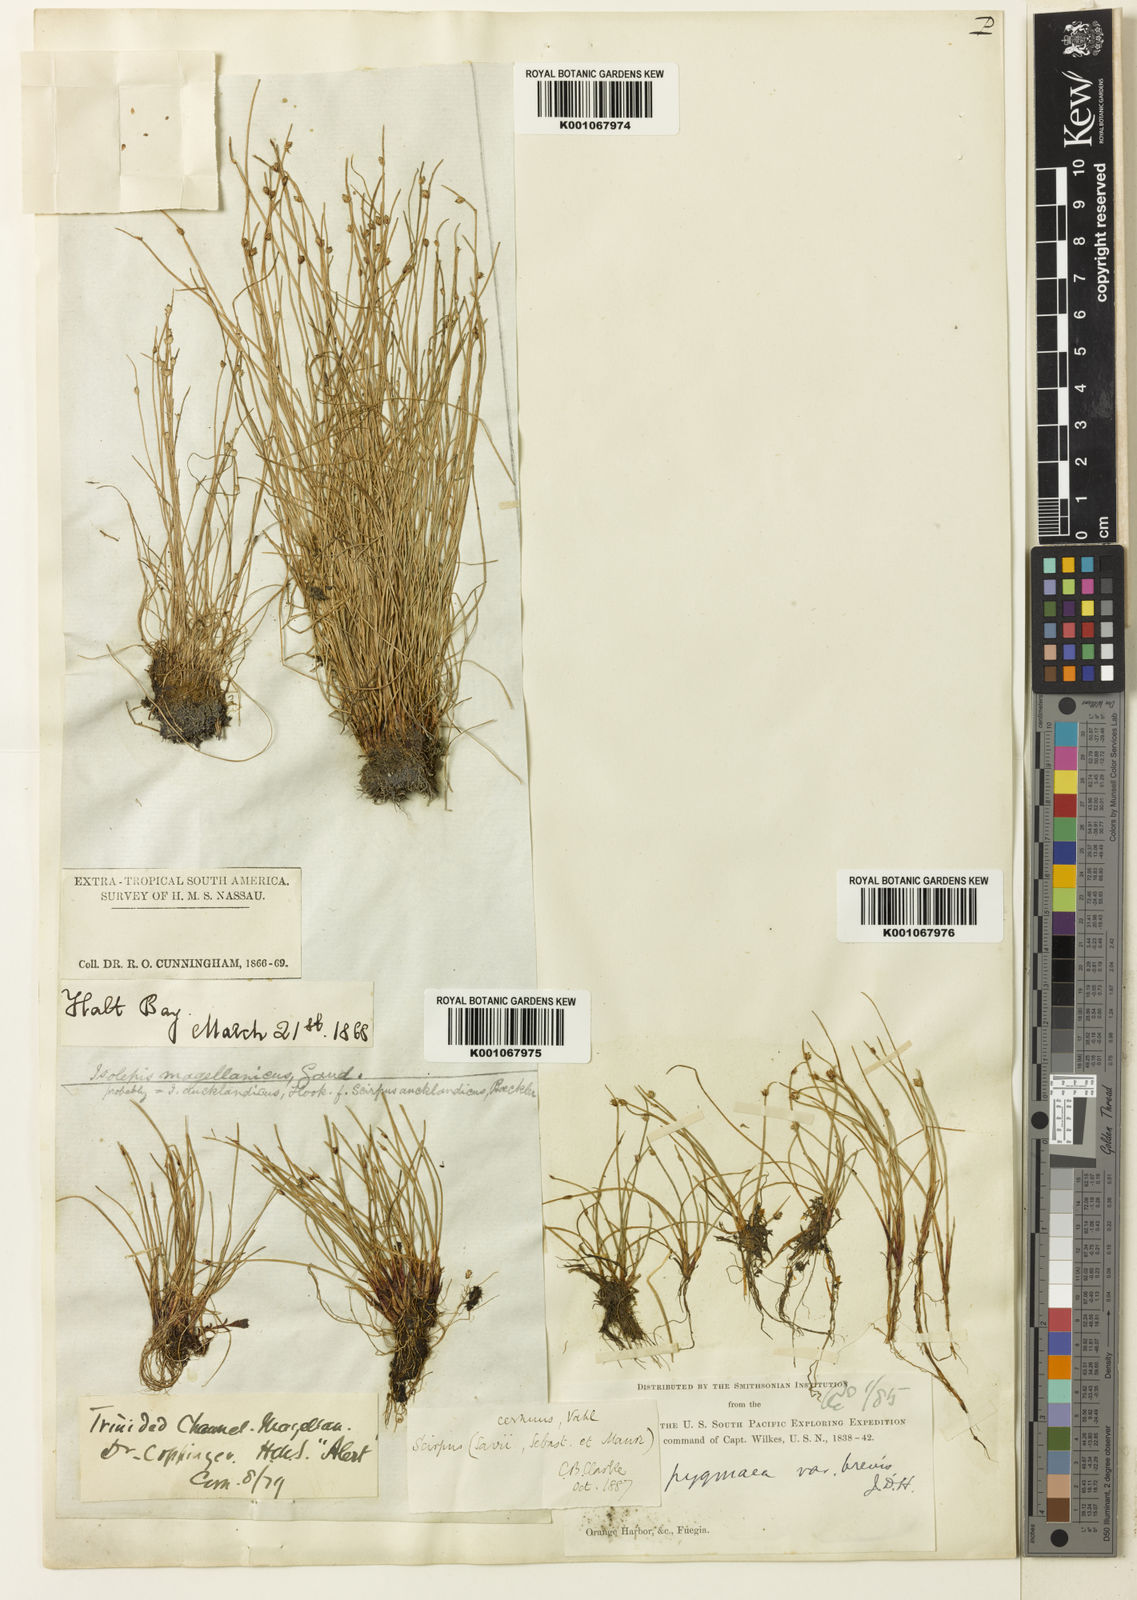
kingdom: Plantae
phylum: Tracheophyta
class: Liliopsida
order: Poales
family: Cyperaceae
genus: Isolepis
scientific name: Isolepis ranko
